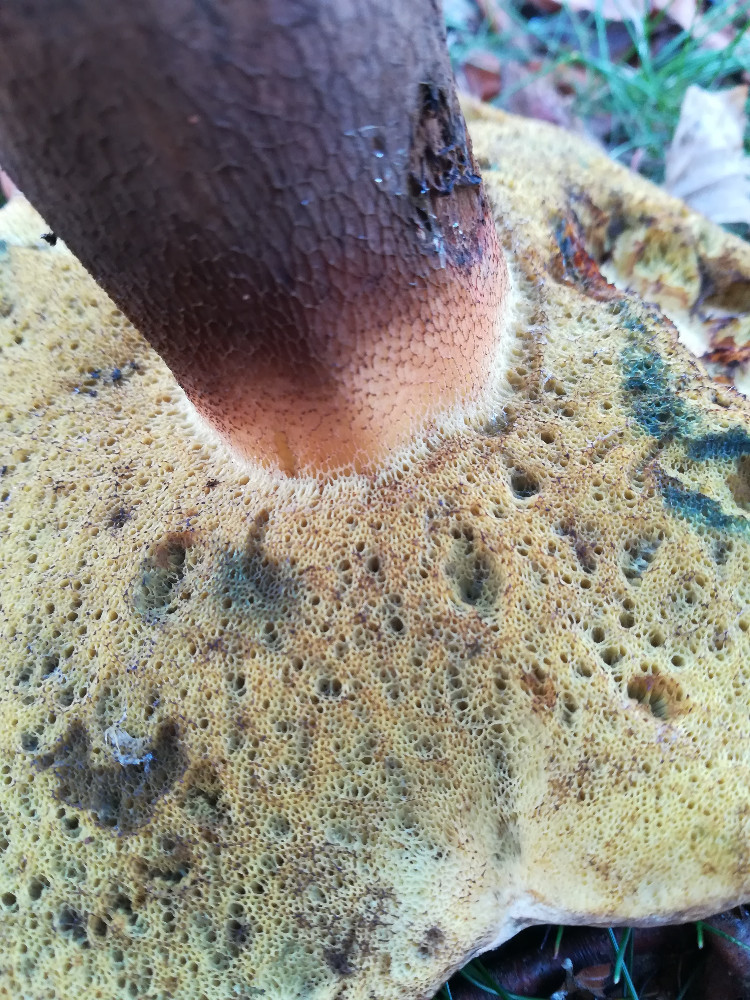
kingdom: Fungi
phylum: Basidiomycota
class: Agaricomycetes
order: Boletales
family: Boletaceae
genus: Caloboletus
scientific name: Caloboletus calopus
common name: skønfodet rørhat
